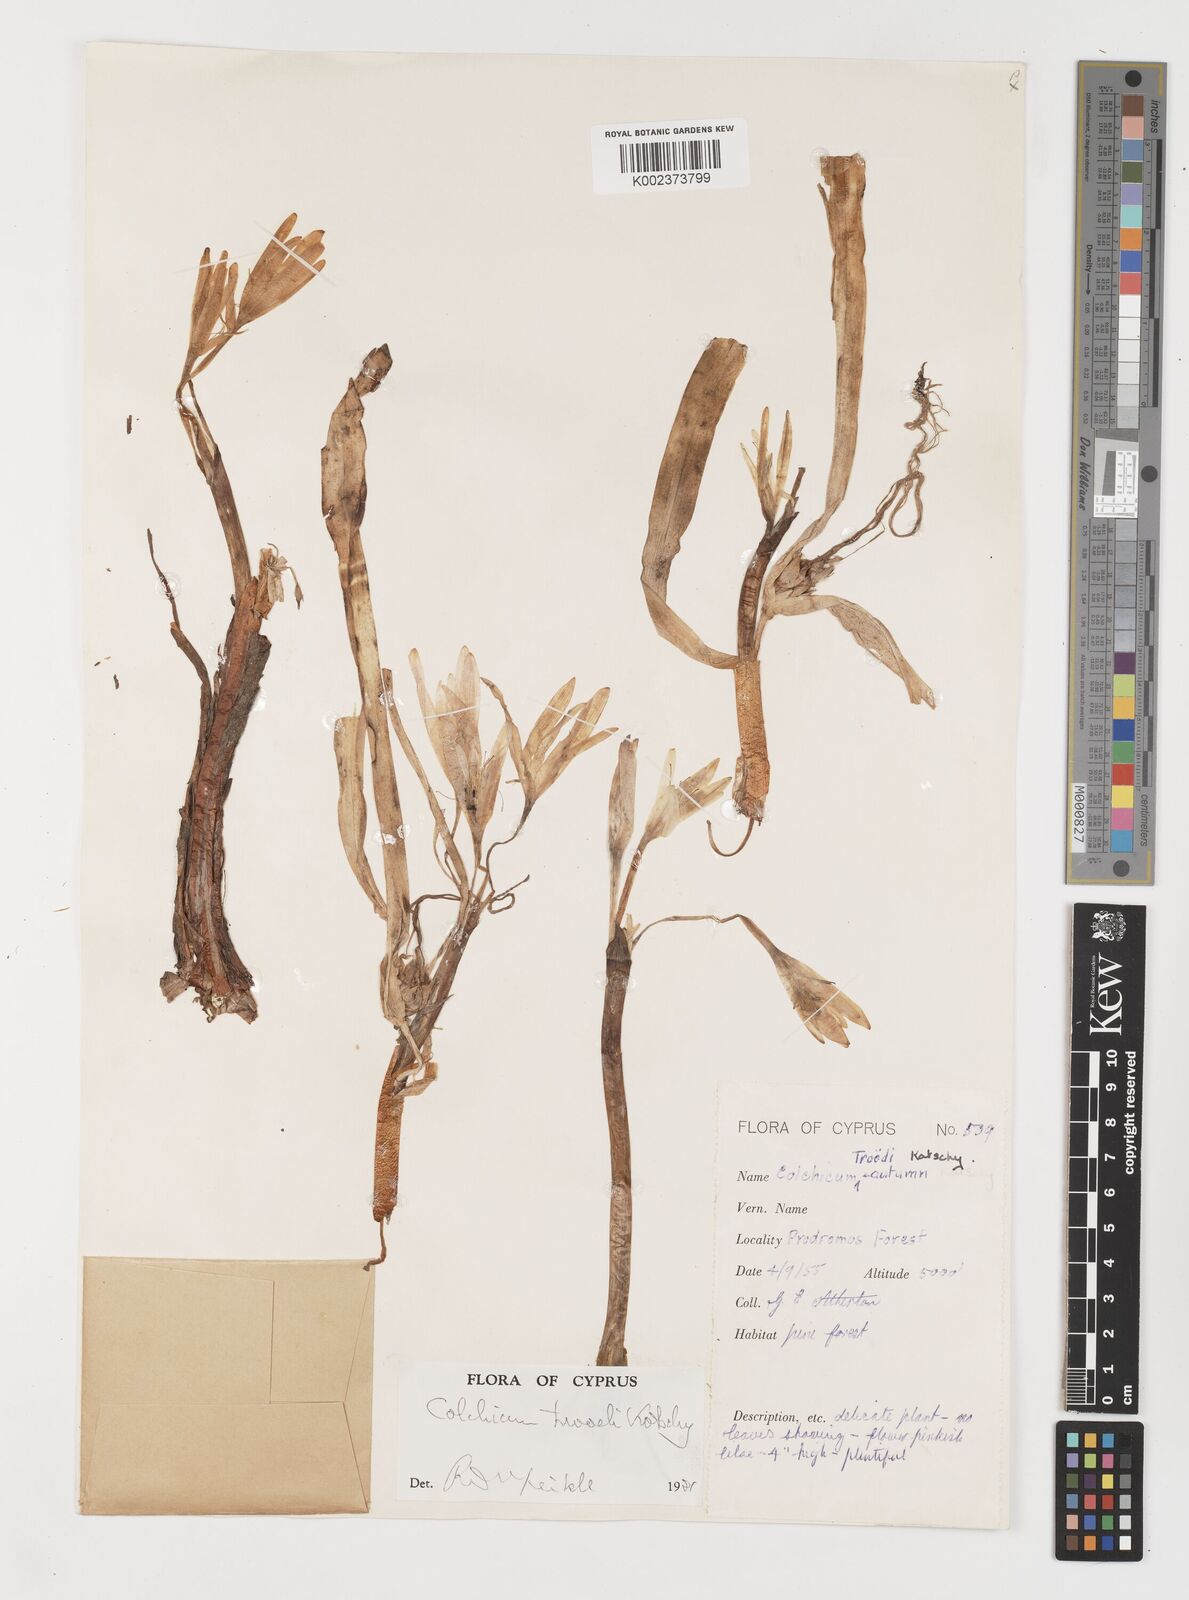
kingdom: Plantae
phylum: Tracheophyta
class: Liliopsida
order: Liliales
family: Colchicaceae
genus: Colchicum
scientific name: Colchicum troodi
